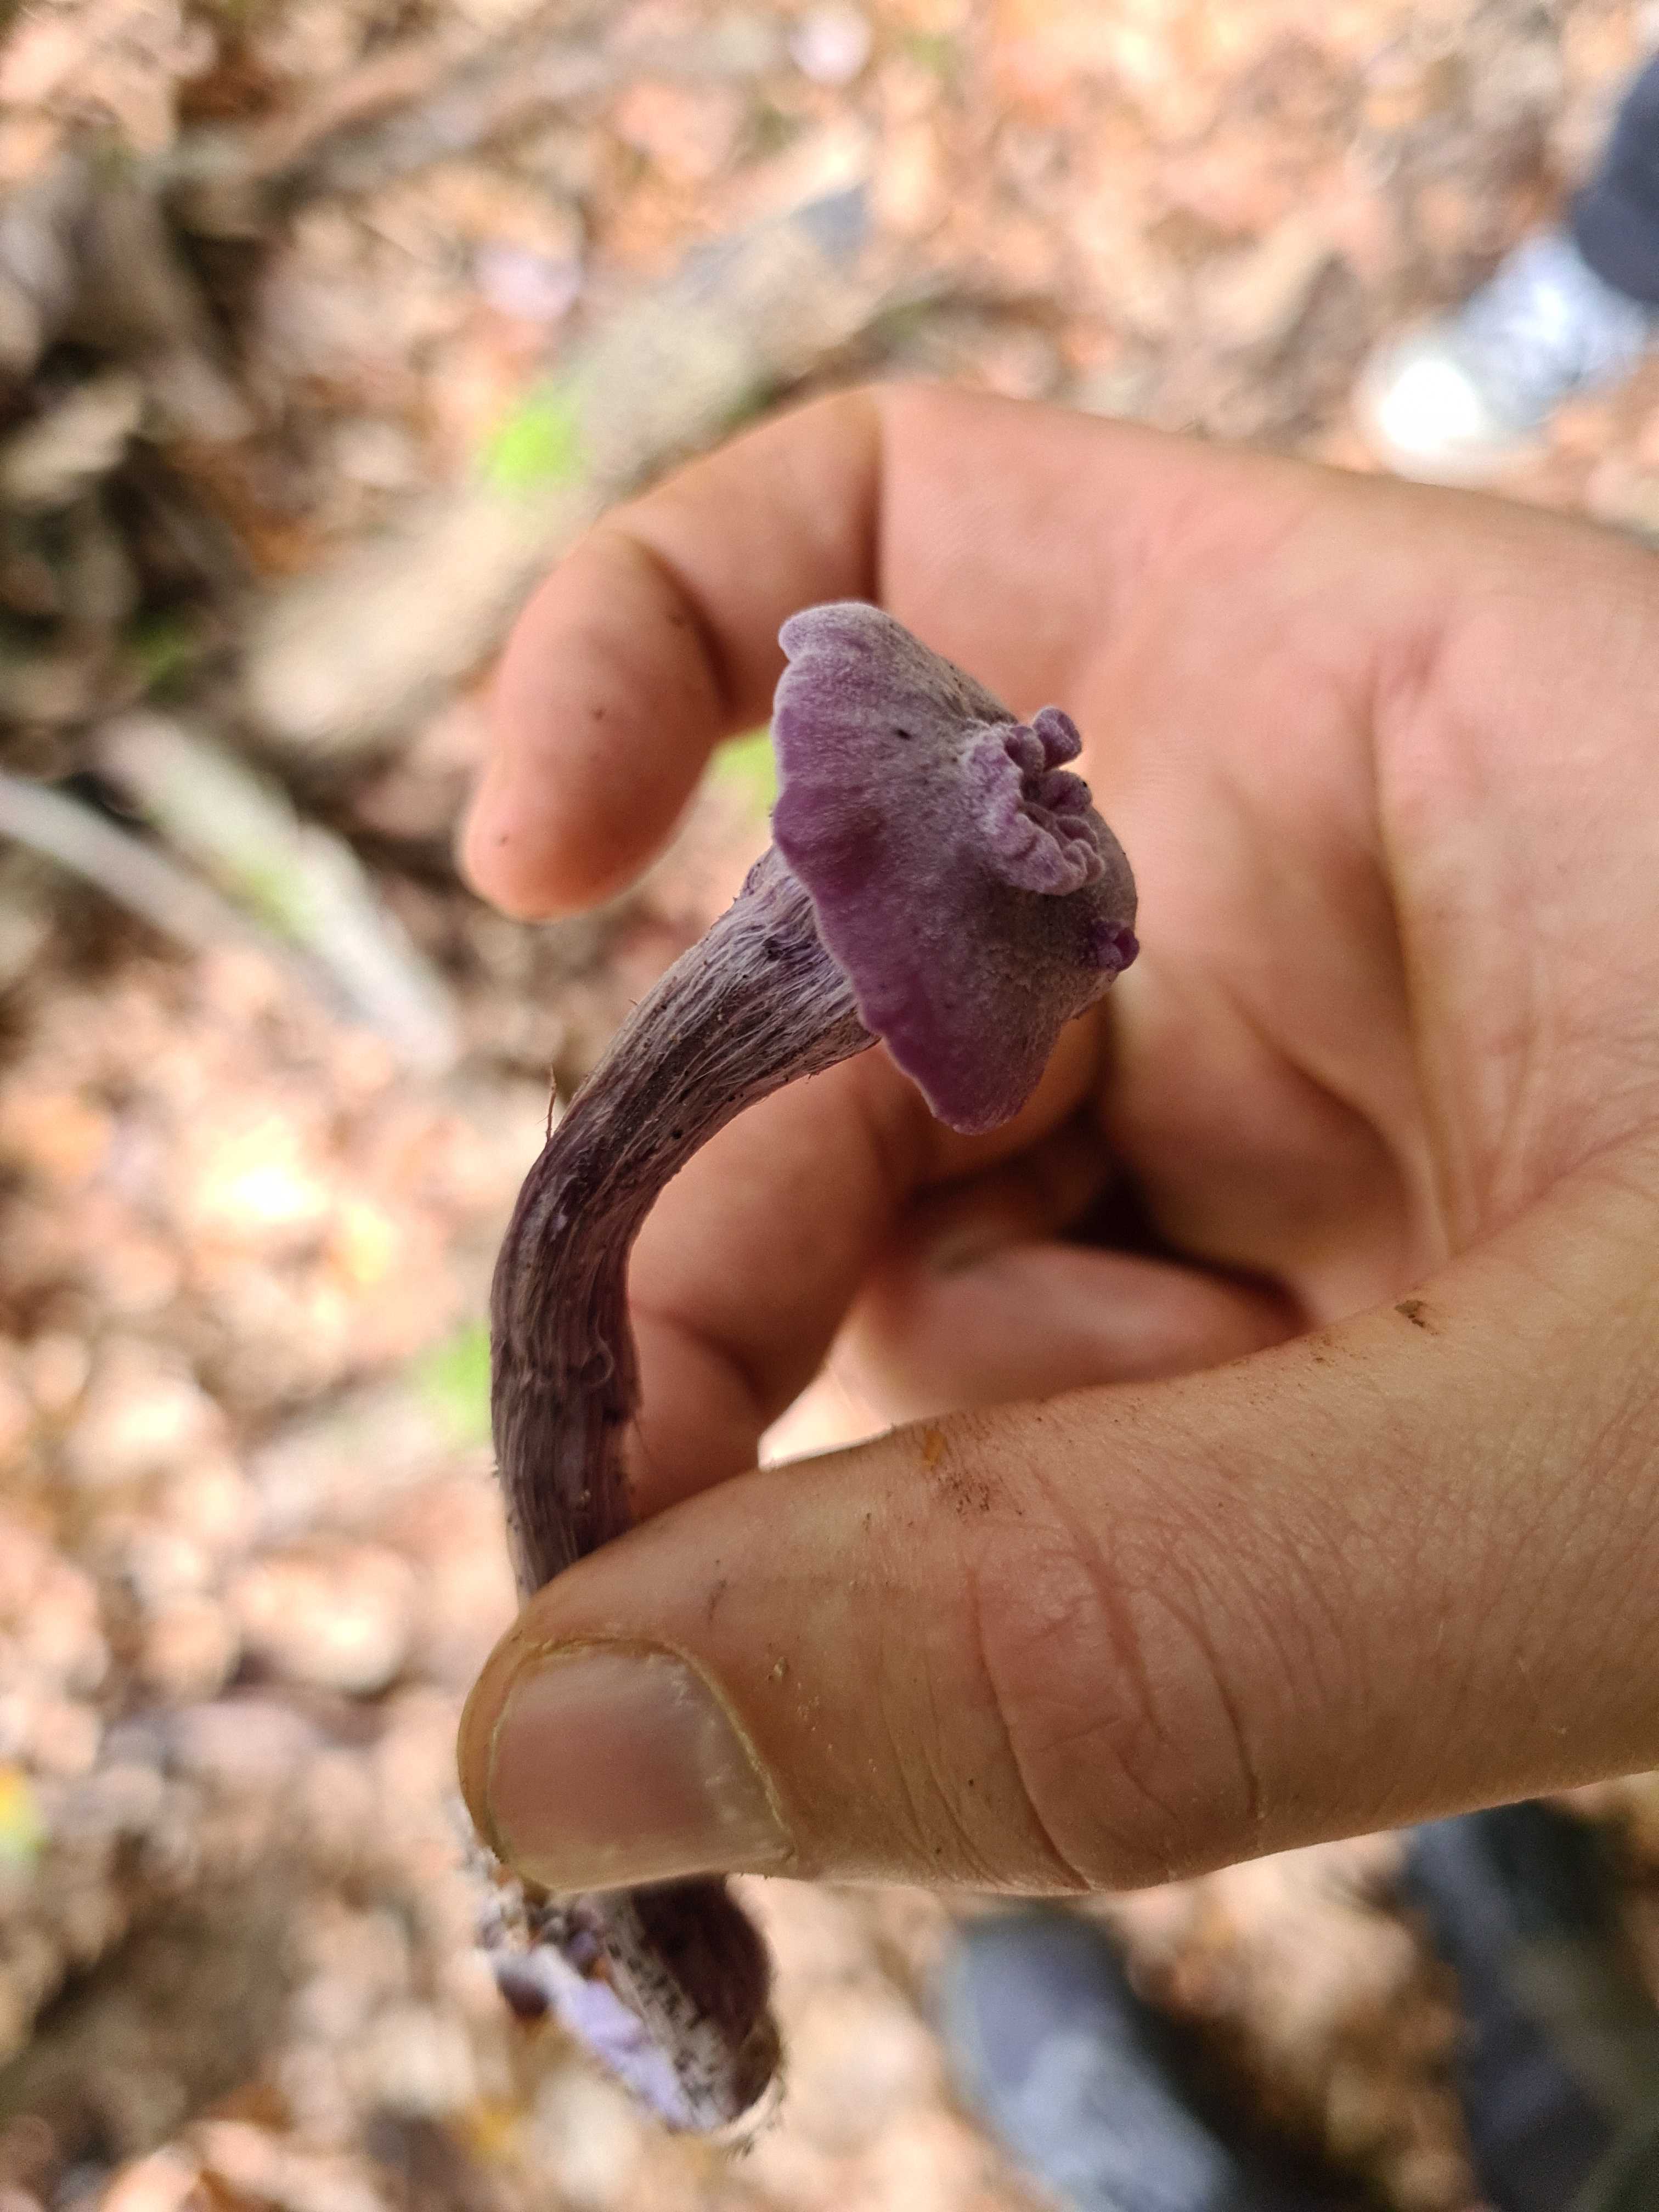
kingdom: Fungi
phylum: Basidiomycota
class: Agaricomycetes
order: Agaricales
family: Hydnangiaceae
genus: Laccaria
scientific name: Laccaria amethystina
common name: violet ametysthat
